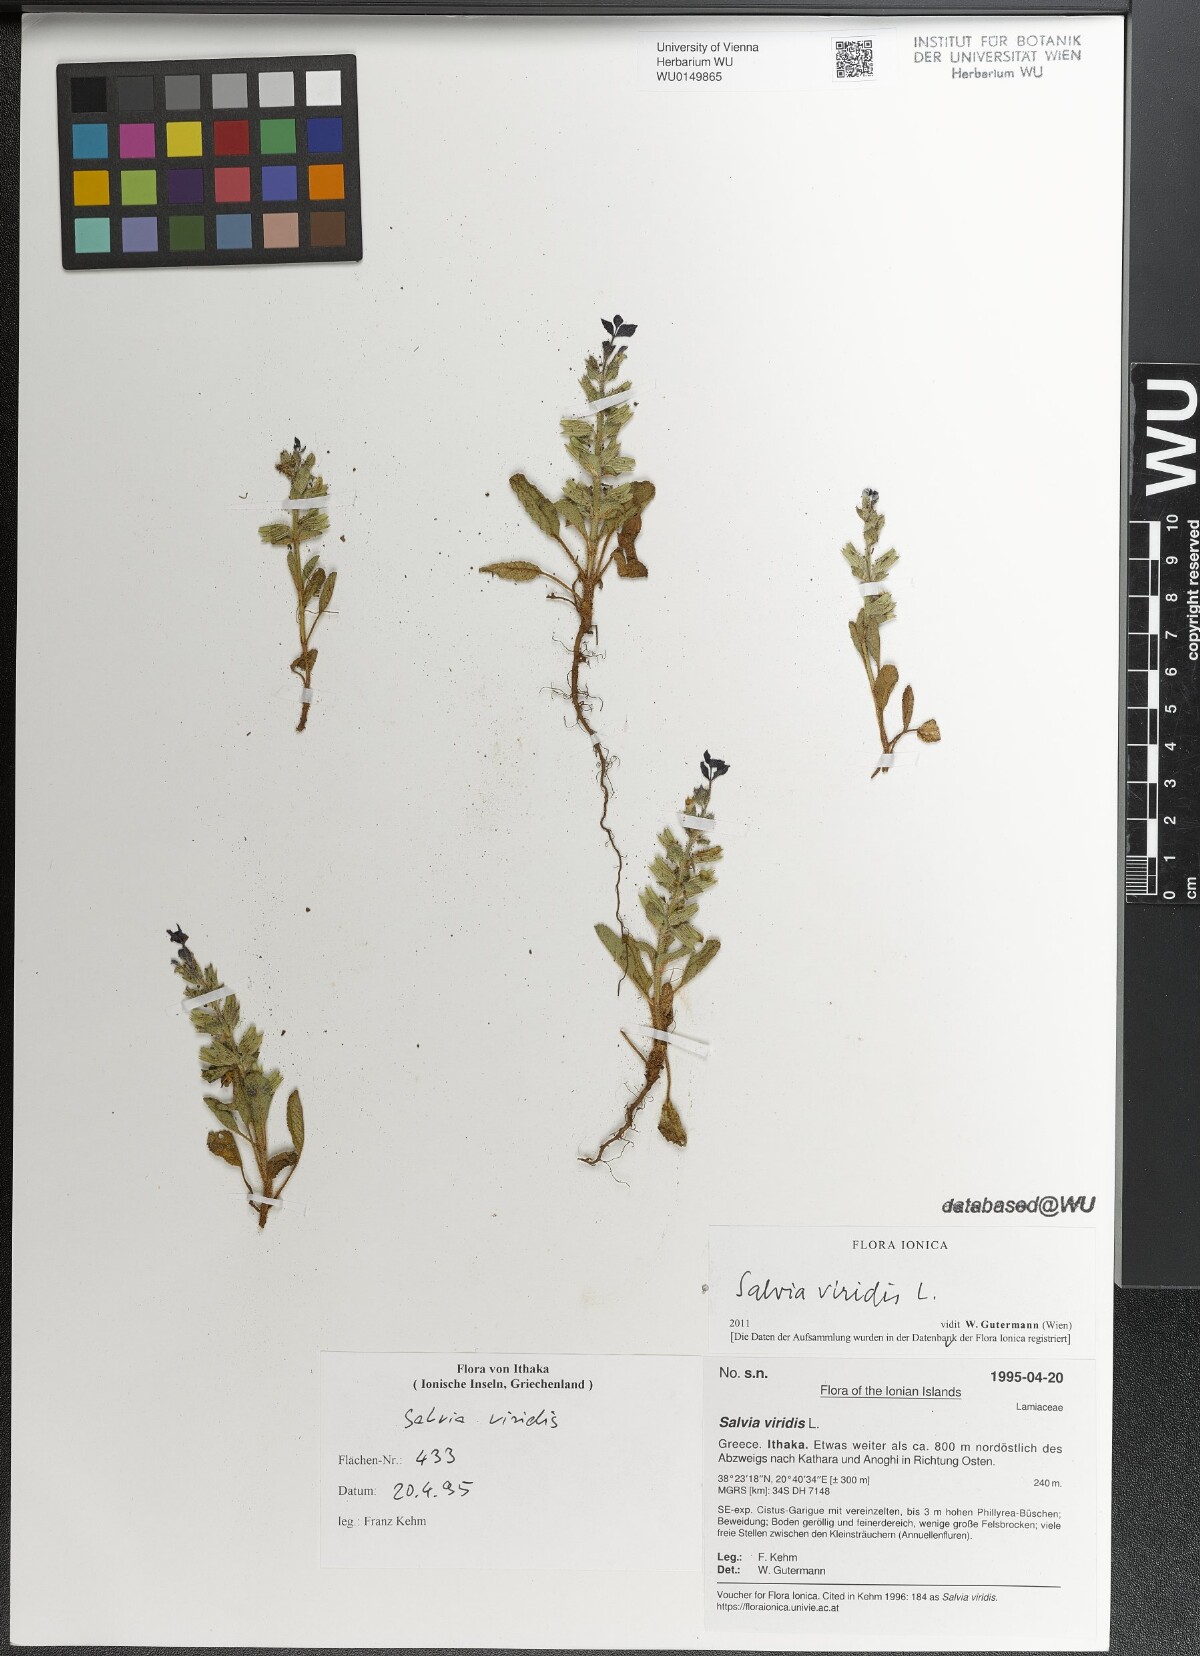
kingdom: Plantae
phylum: Tracheophyta
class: Magnoliopsida
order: Lamiales
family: Lamiaceae
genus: Salvia
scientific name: Salvia viridis
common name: Annual clary
